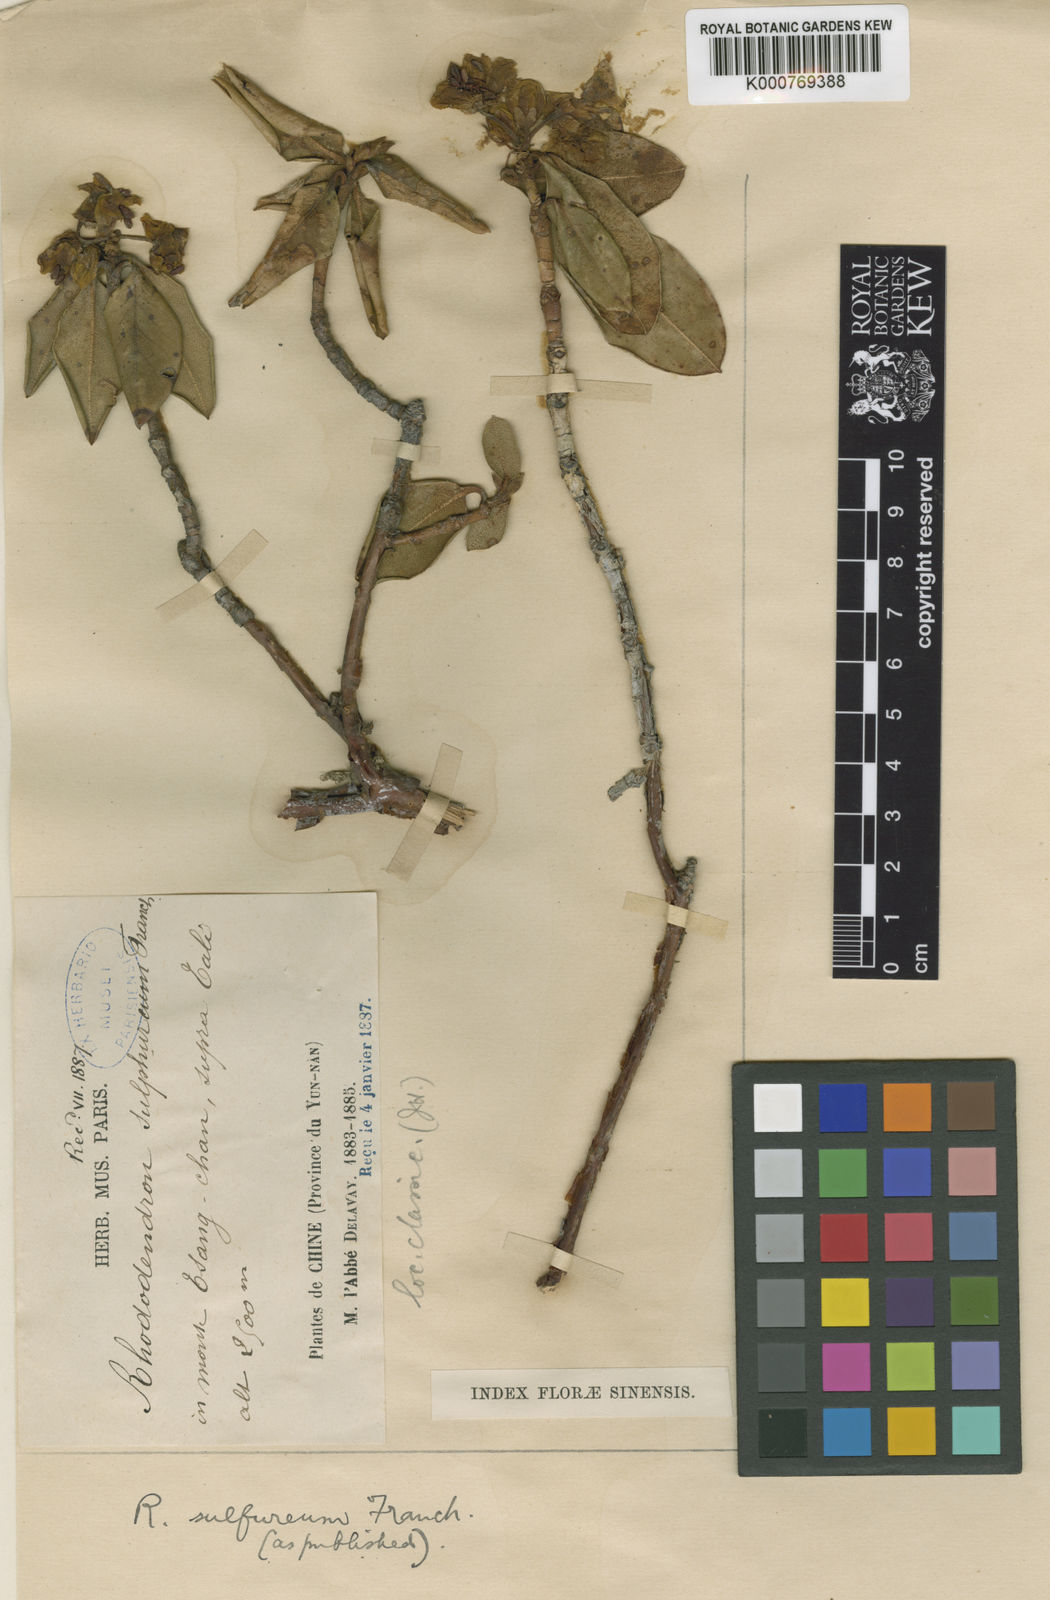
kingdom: Plantae
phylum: Tracheophyta
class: Magnoliopsida
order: Ericales
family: Ericaceae
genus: Rhododendron
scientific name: Rhododendron sulfureum
